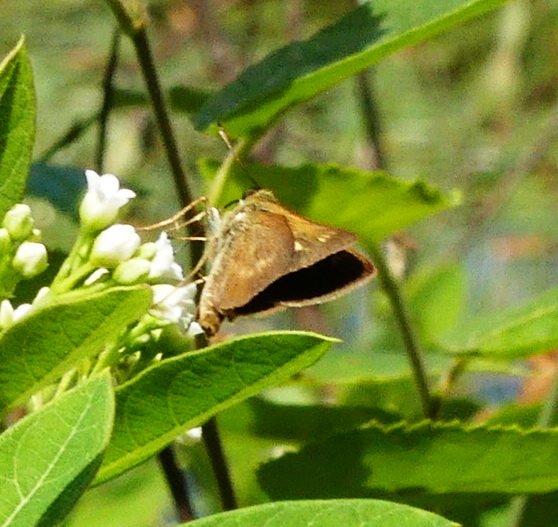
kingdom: Animalia
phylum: Arthropoda
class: Insecta
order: Lepidoptera
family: Hesperiidae
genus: Polites
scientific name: Polites egeremet
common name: Northern Broken-Dash
